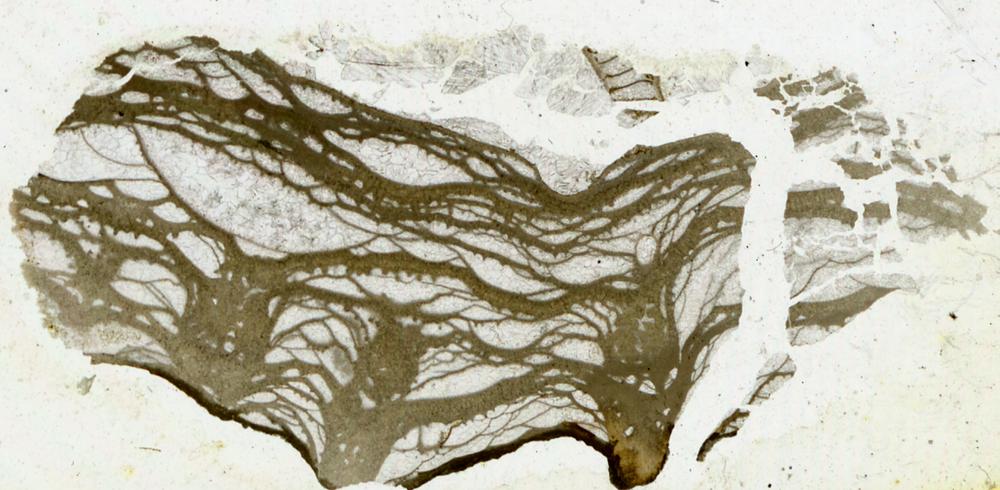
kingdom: Animalia
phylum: Porifera
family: Stylostromatidae
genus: Pachystylostroma
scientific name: Pachystylostroma Stromatopora ungerni
